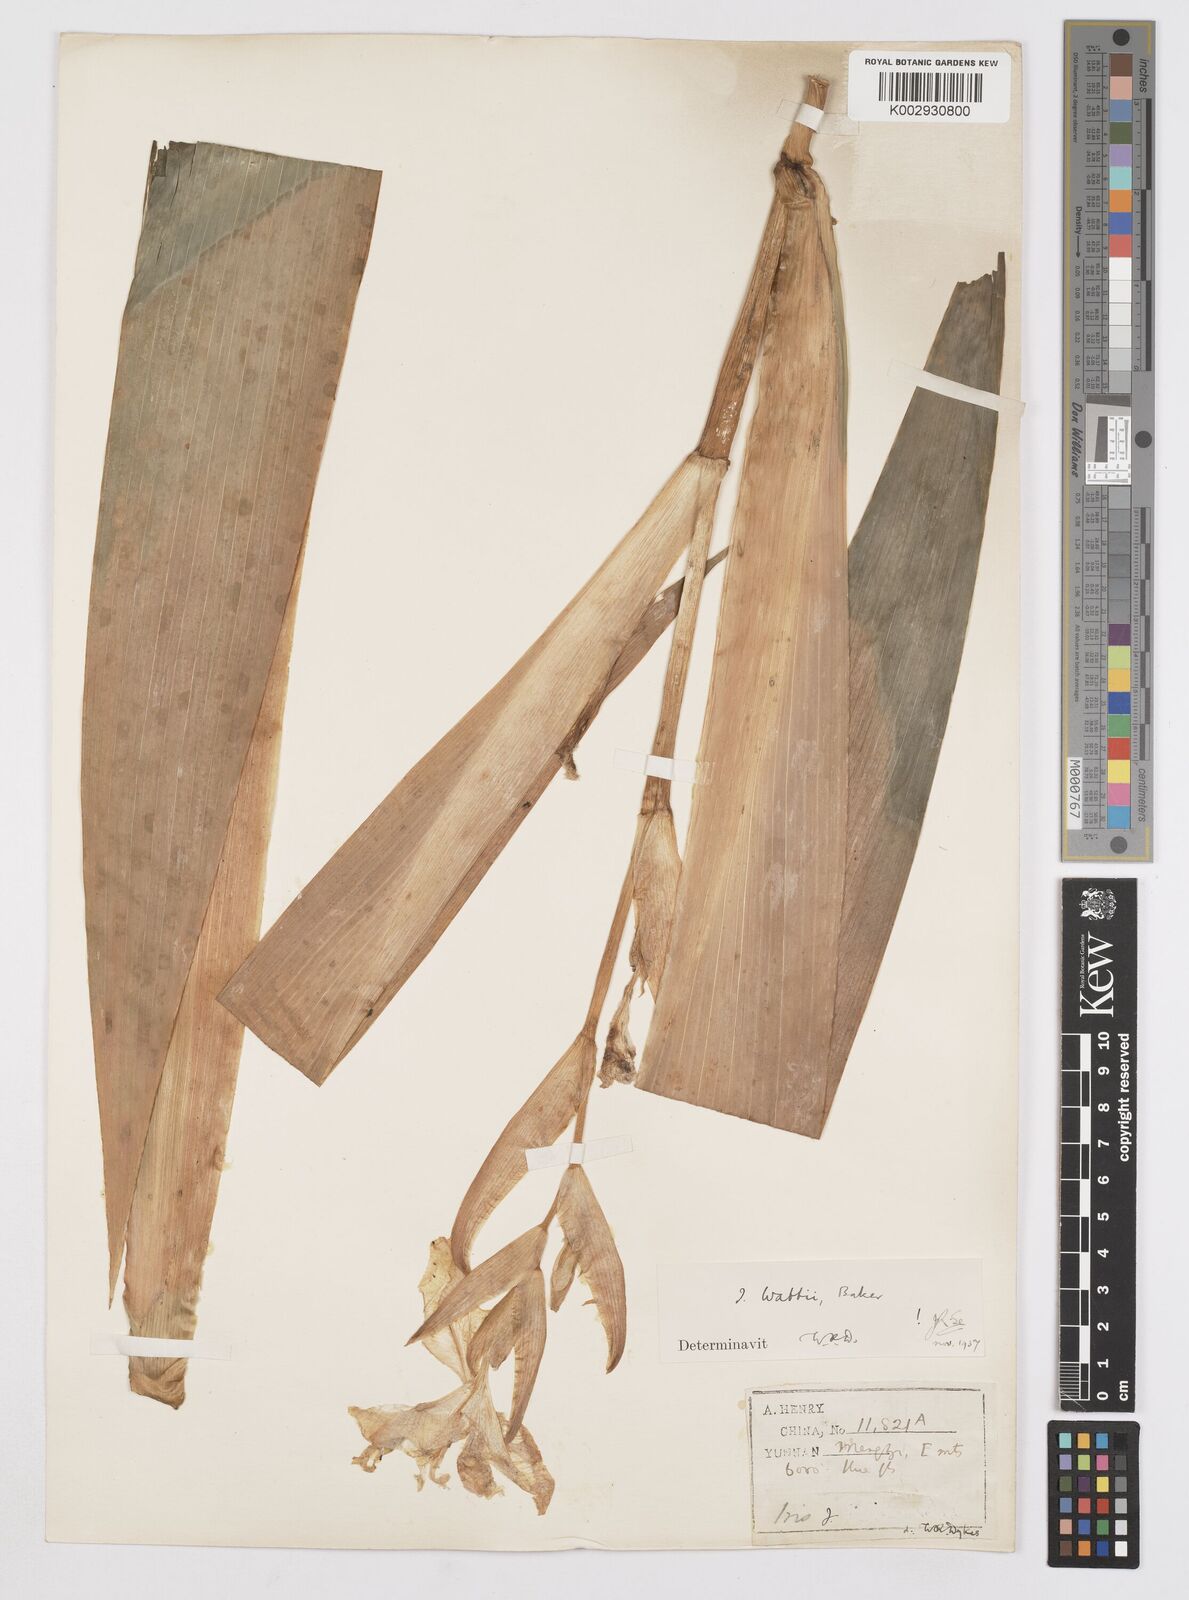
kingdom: Plantae
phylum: Tracheophyta
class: Liliopsida
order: Asparagales
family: Iridaceae
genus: Iris
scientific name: Iris wattii
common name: Fan-shape iris
